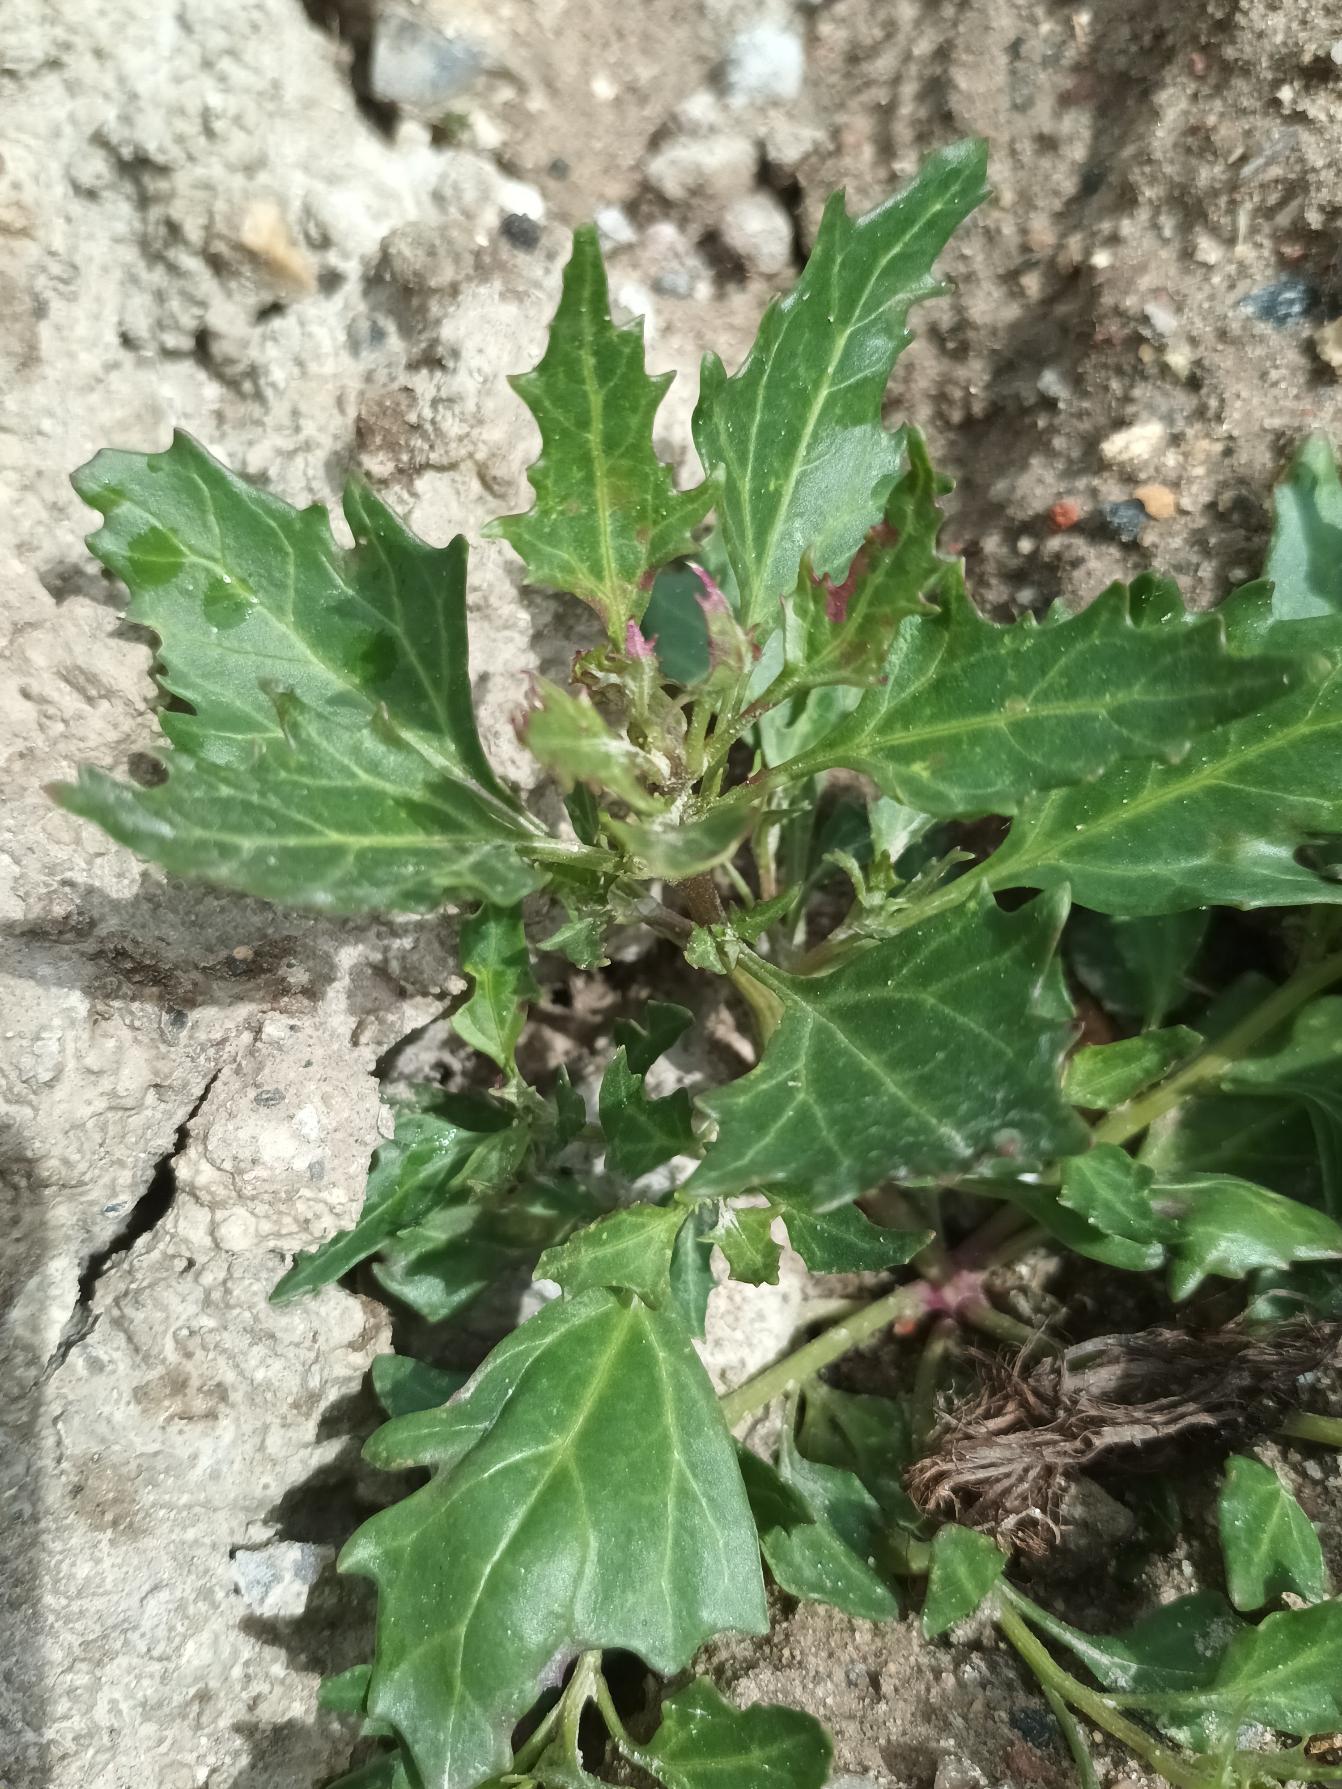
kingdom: Plantae
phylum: Tracheophyta
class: Magnoliopsida
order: Caryophyllales
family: Amaranthaceae
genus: Oxybasis
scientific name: Oxybasis rubra
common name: Rød gåsefod
